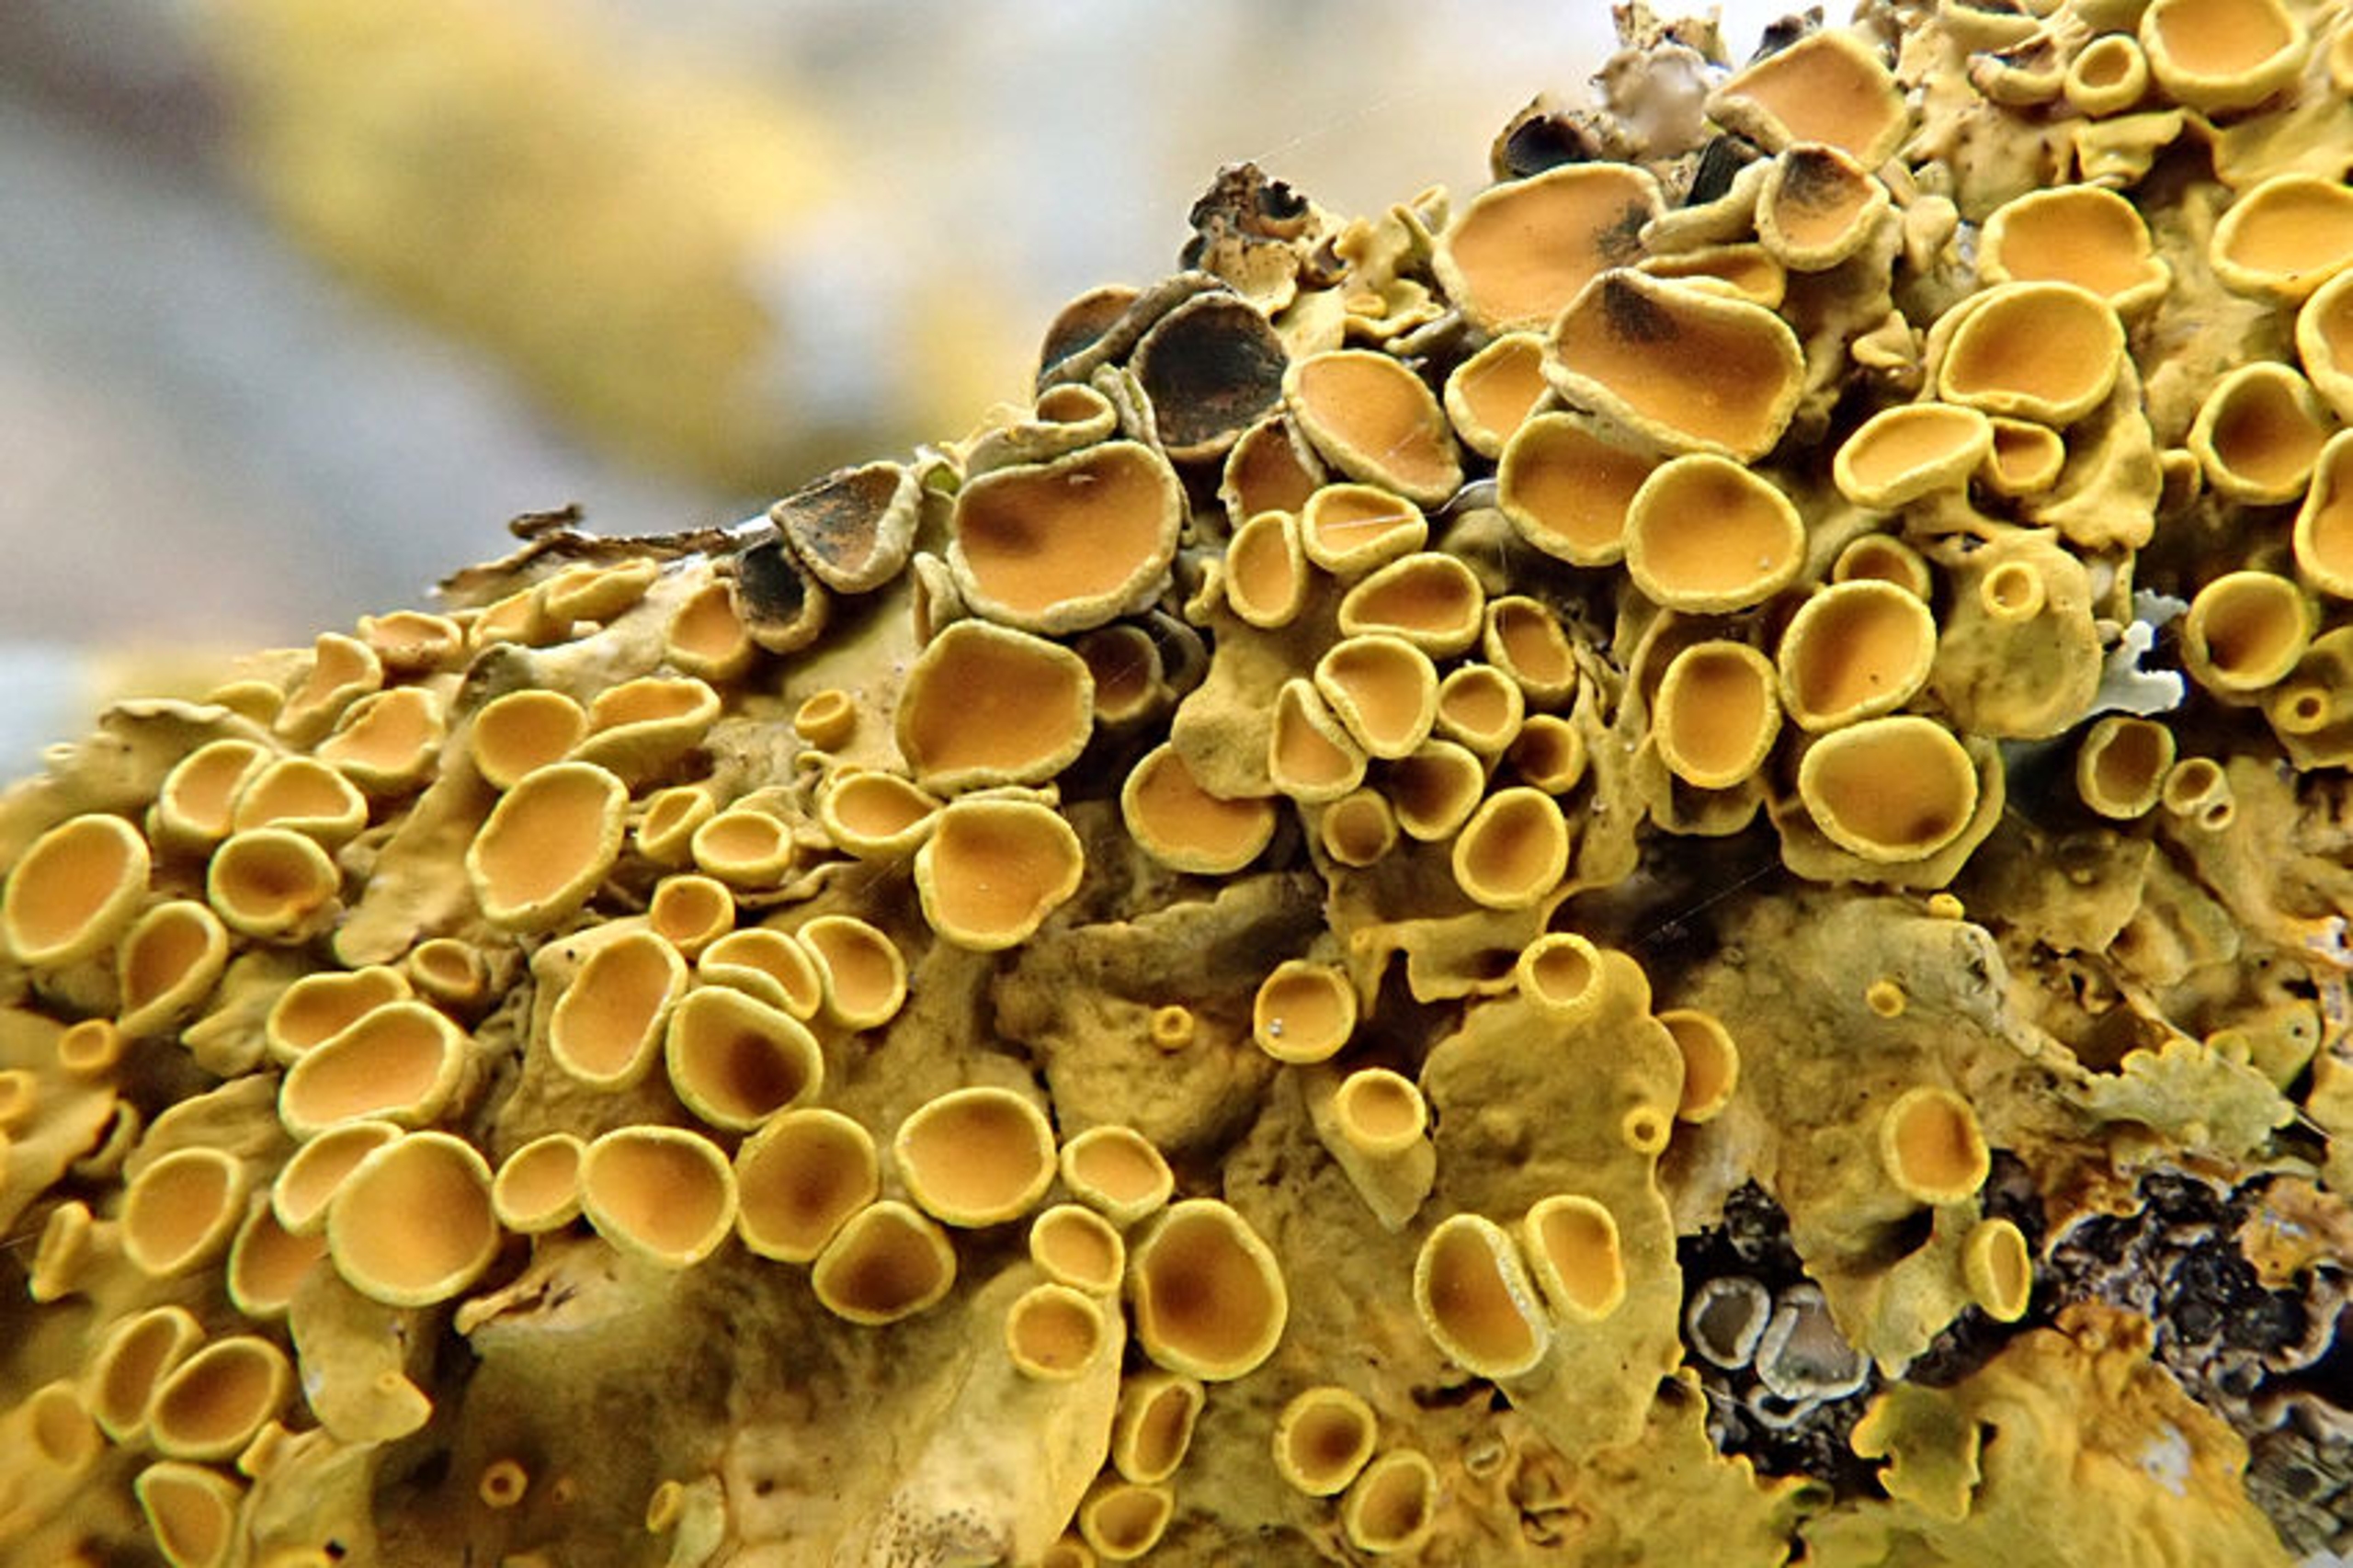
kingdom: Fungi
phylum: Ascomycota
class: Lecanoromycetes
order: Teloschistales
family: Teloschistaceae
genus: Xanthoria
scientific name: Xanthoria parietina
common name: Almindelig væggelav
